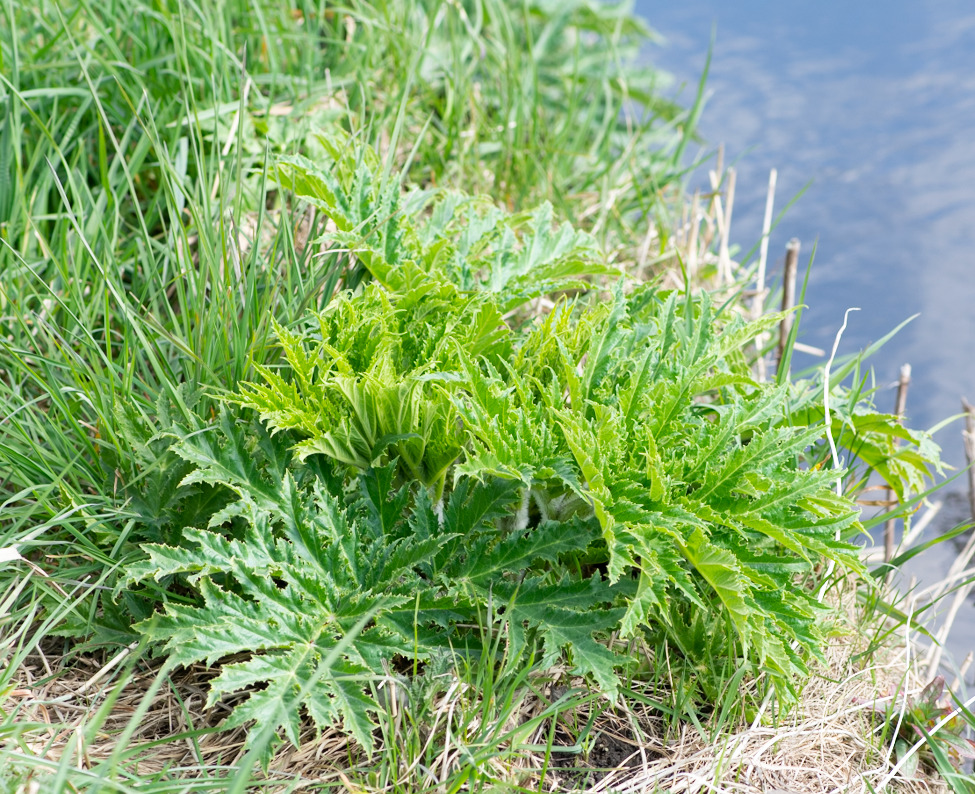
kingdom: Plantae
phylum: Tracheophyta
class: Magnoliopsida
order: Apiales
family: Apiaceae
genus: Heracleum
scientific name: Heracleum mantegazzianum
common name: Kæmpe-bjørneklo
